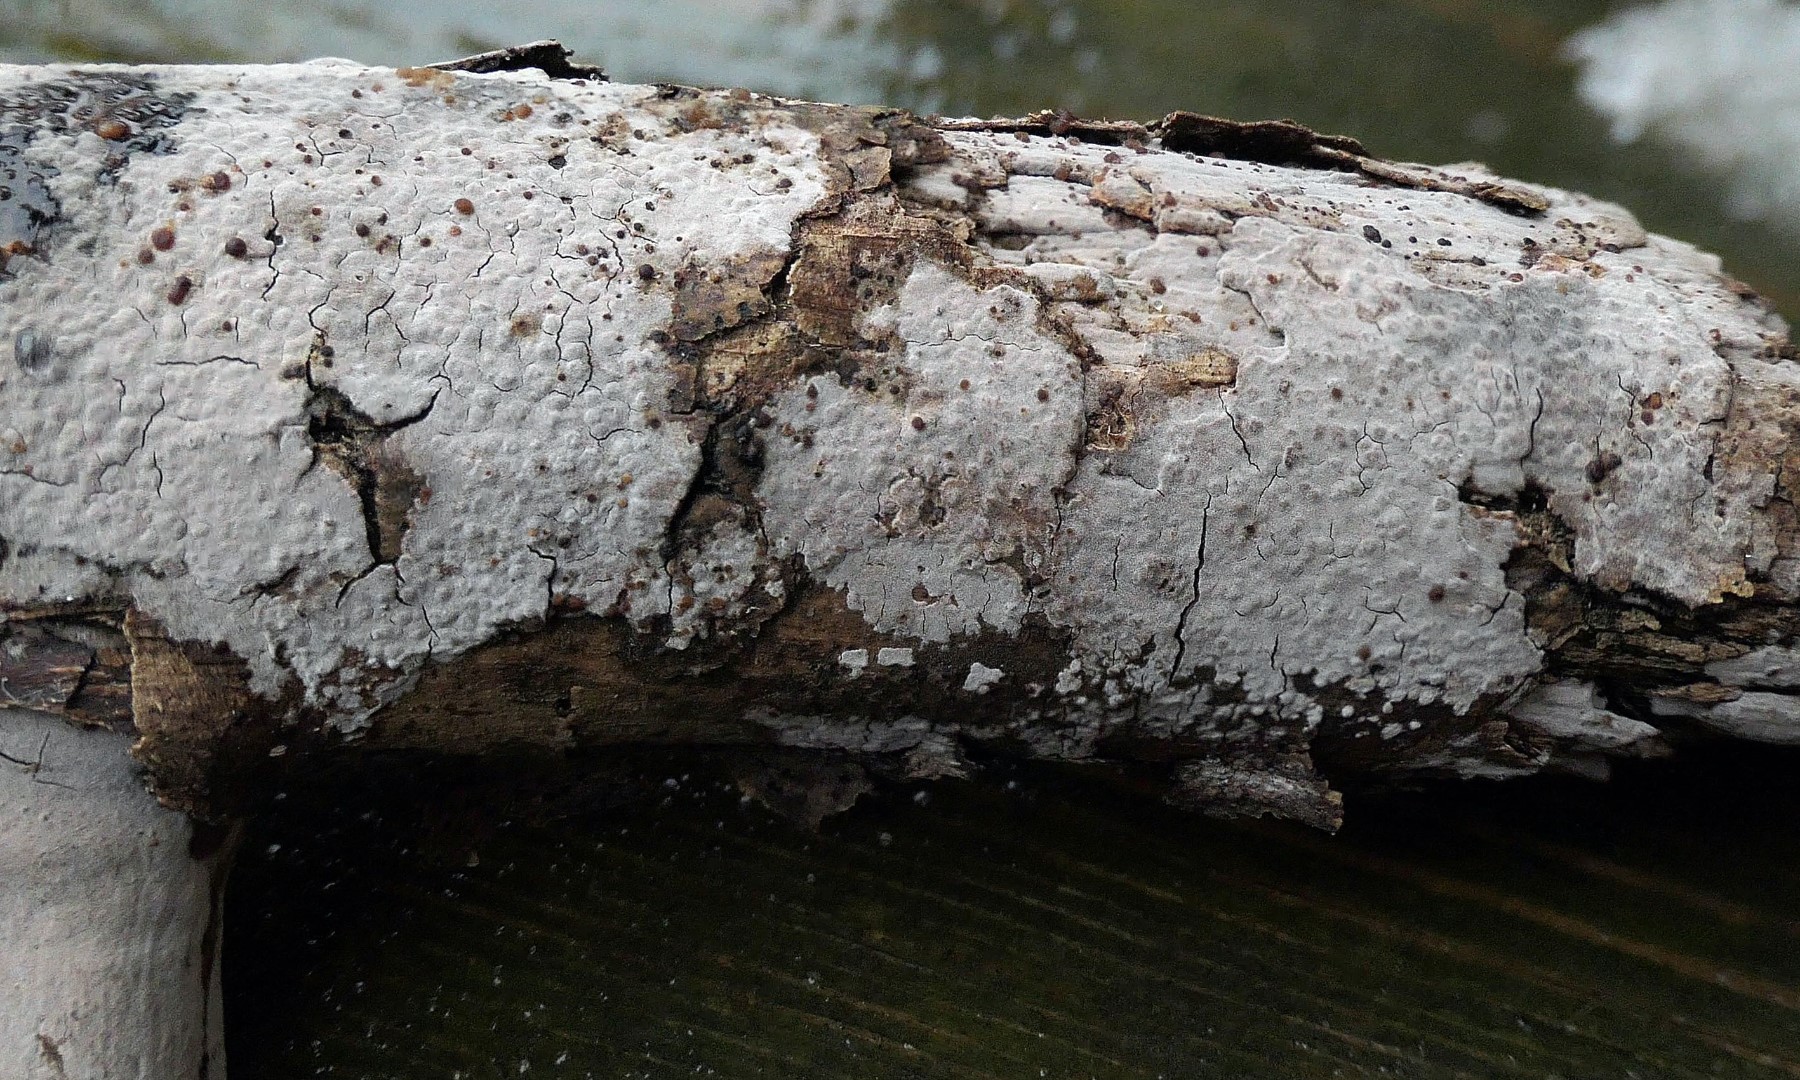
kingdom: Fungi
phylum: Basidiomycota
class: Agaricomycetes
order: Russulales
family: Peniophoraceae
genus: Peniophora
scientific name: Peniophora lycii
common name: grynet voksskind
